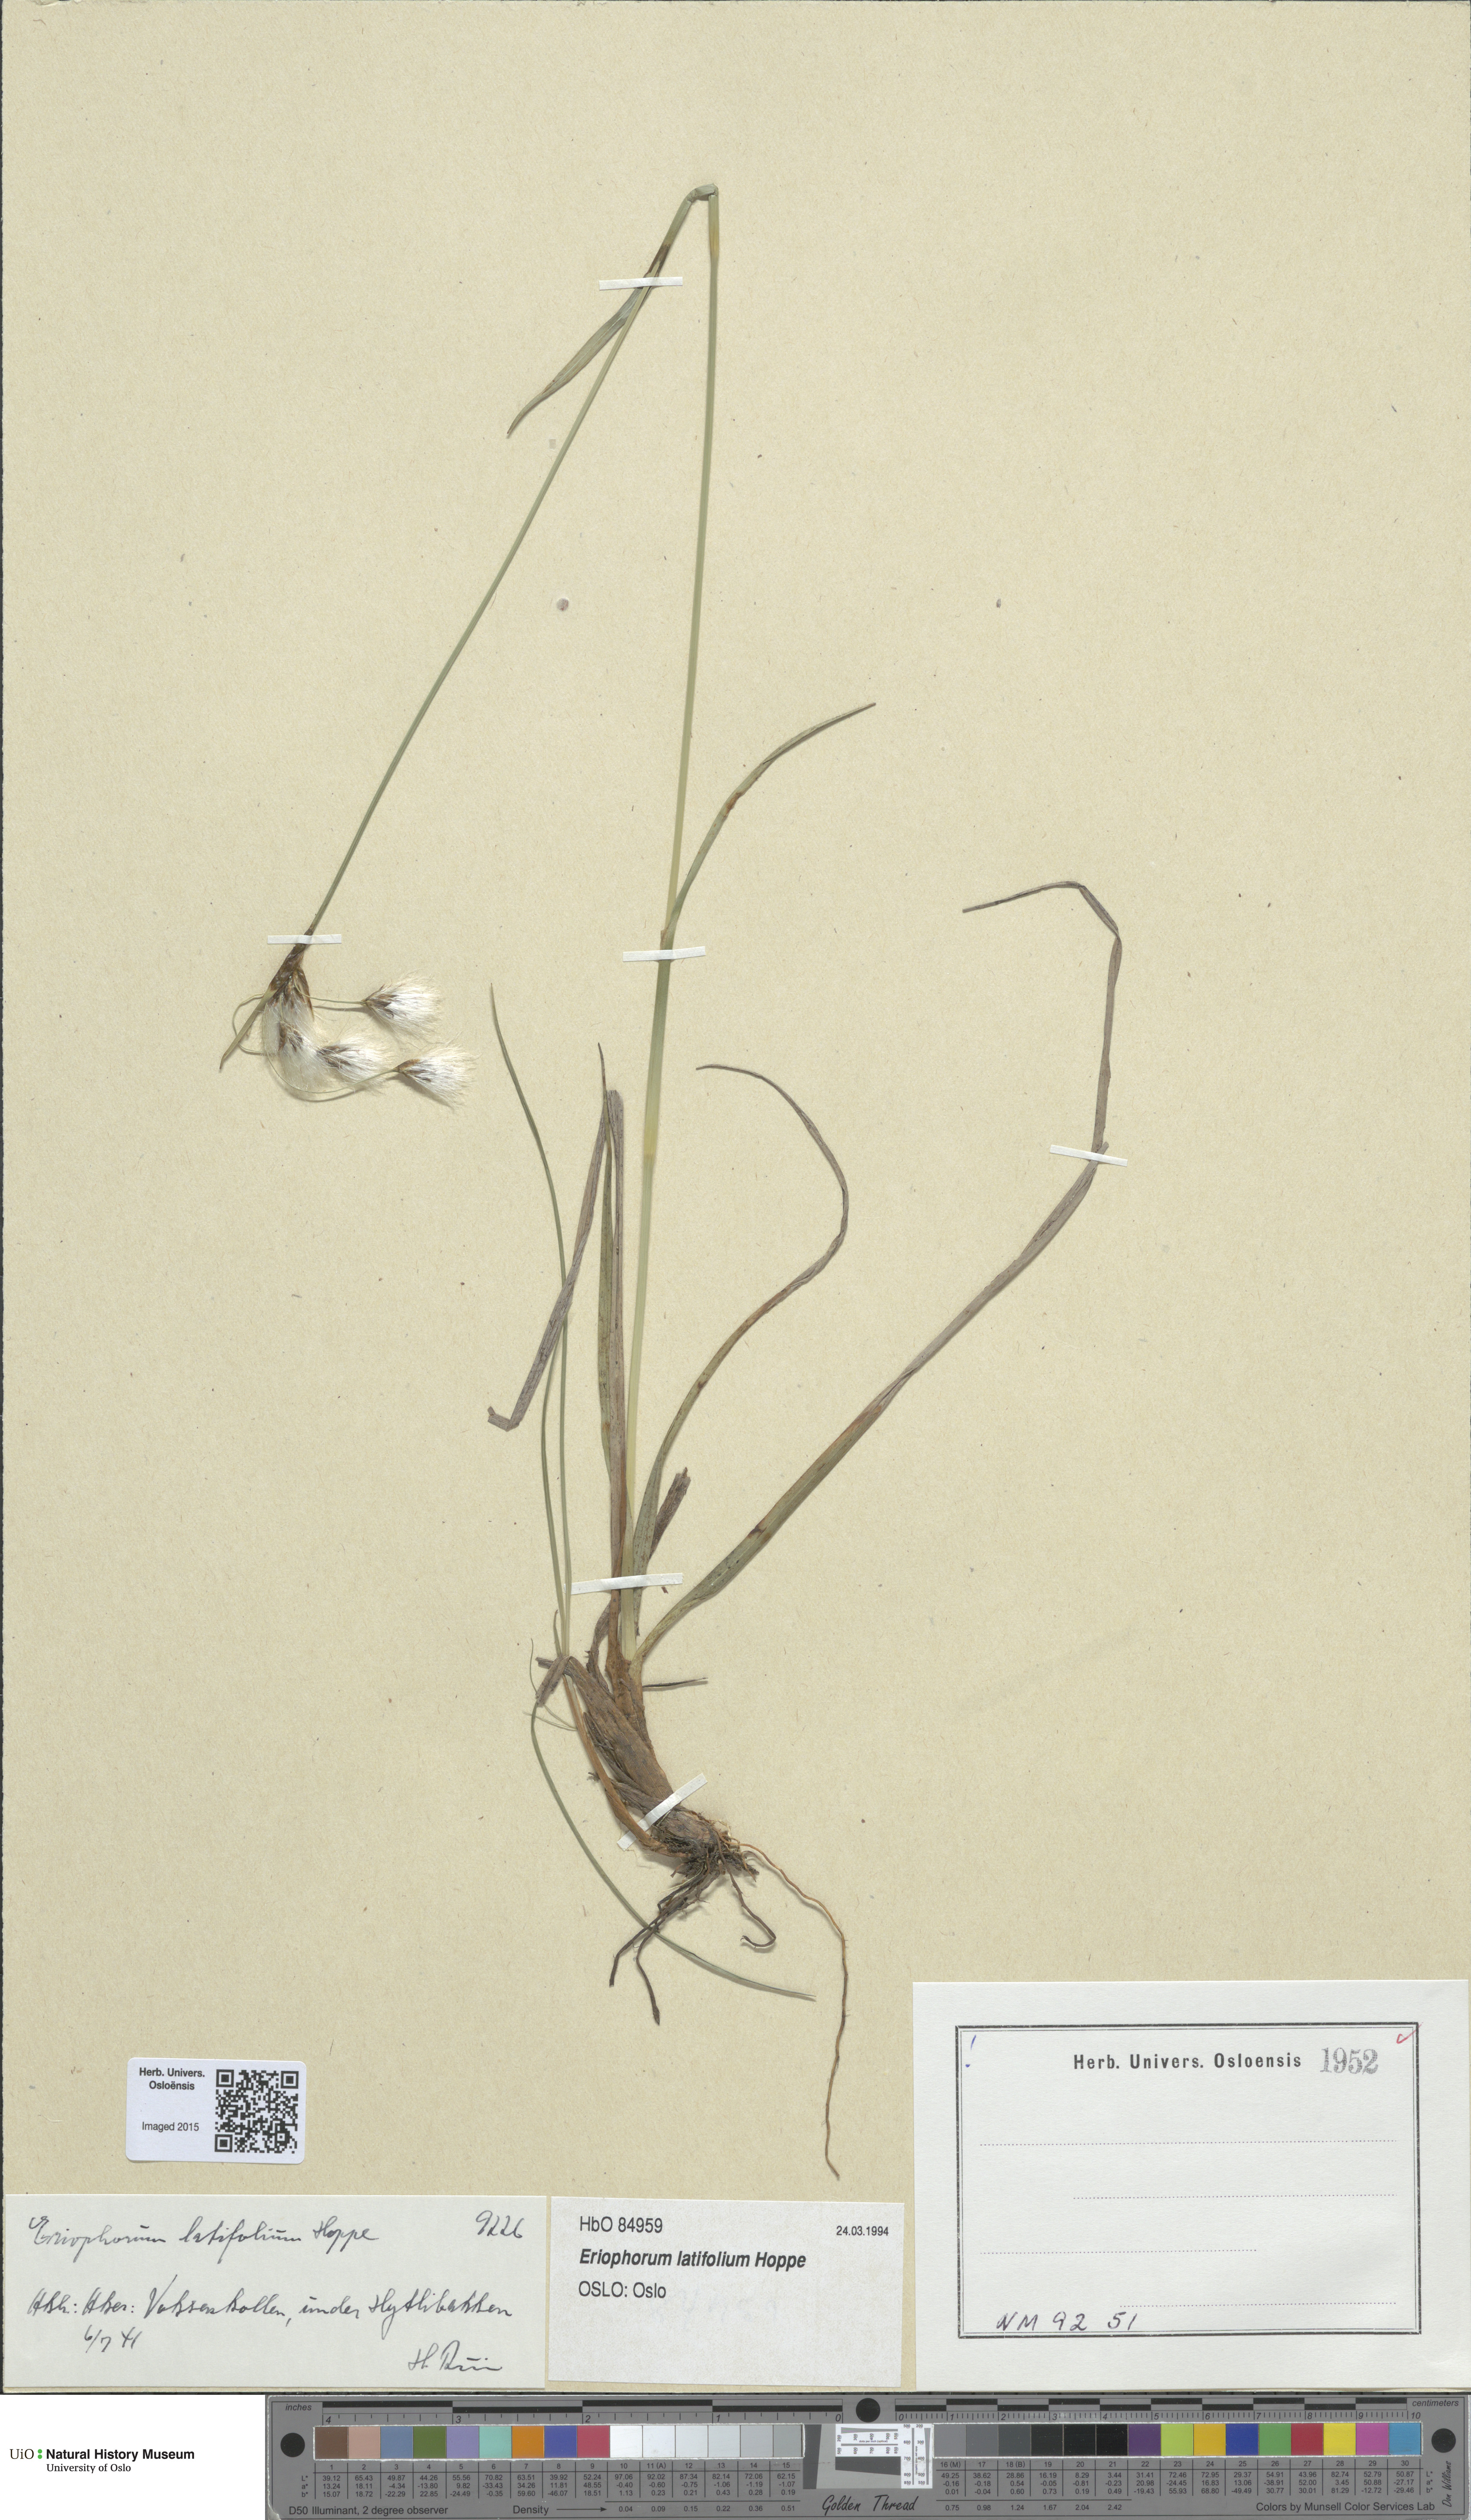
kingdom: Plantae
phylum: Tracheophyta
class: Liliopsida
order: Poales
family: Cyperaceae
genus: Eriophorum
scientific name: Eriophorum latifolium
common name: Broad-leaved cottongrass
